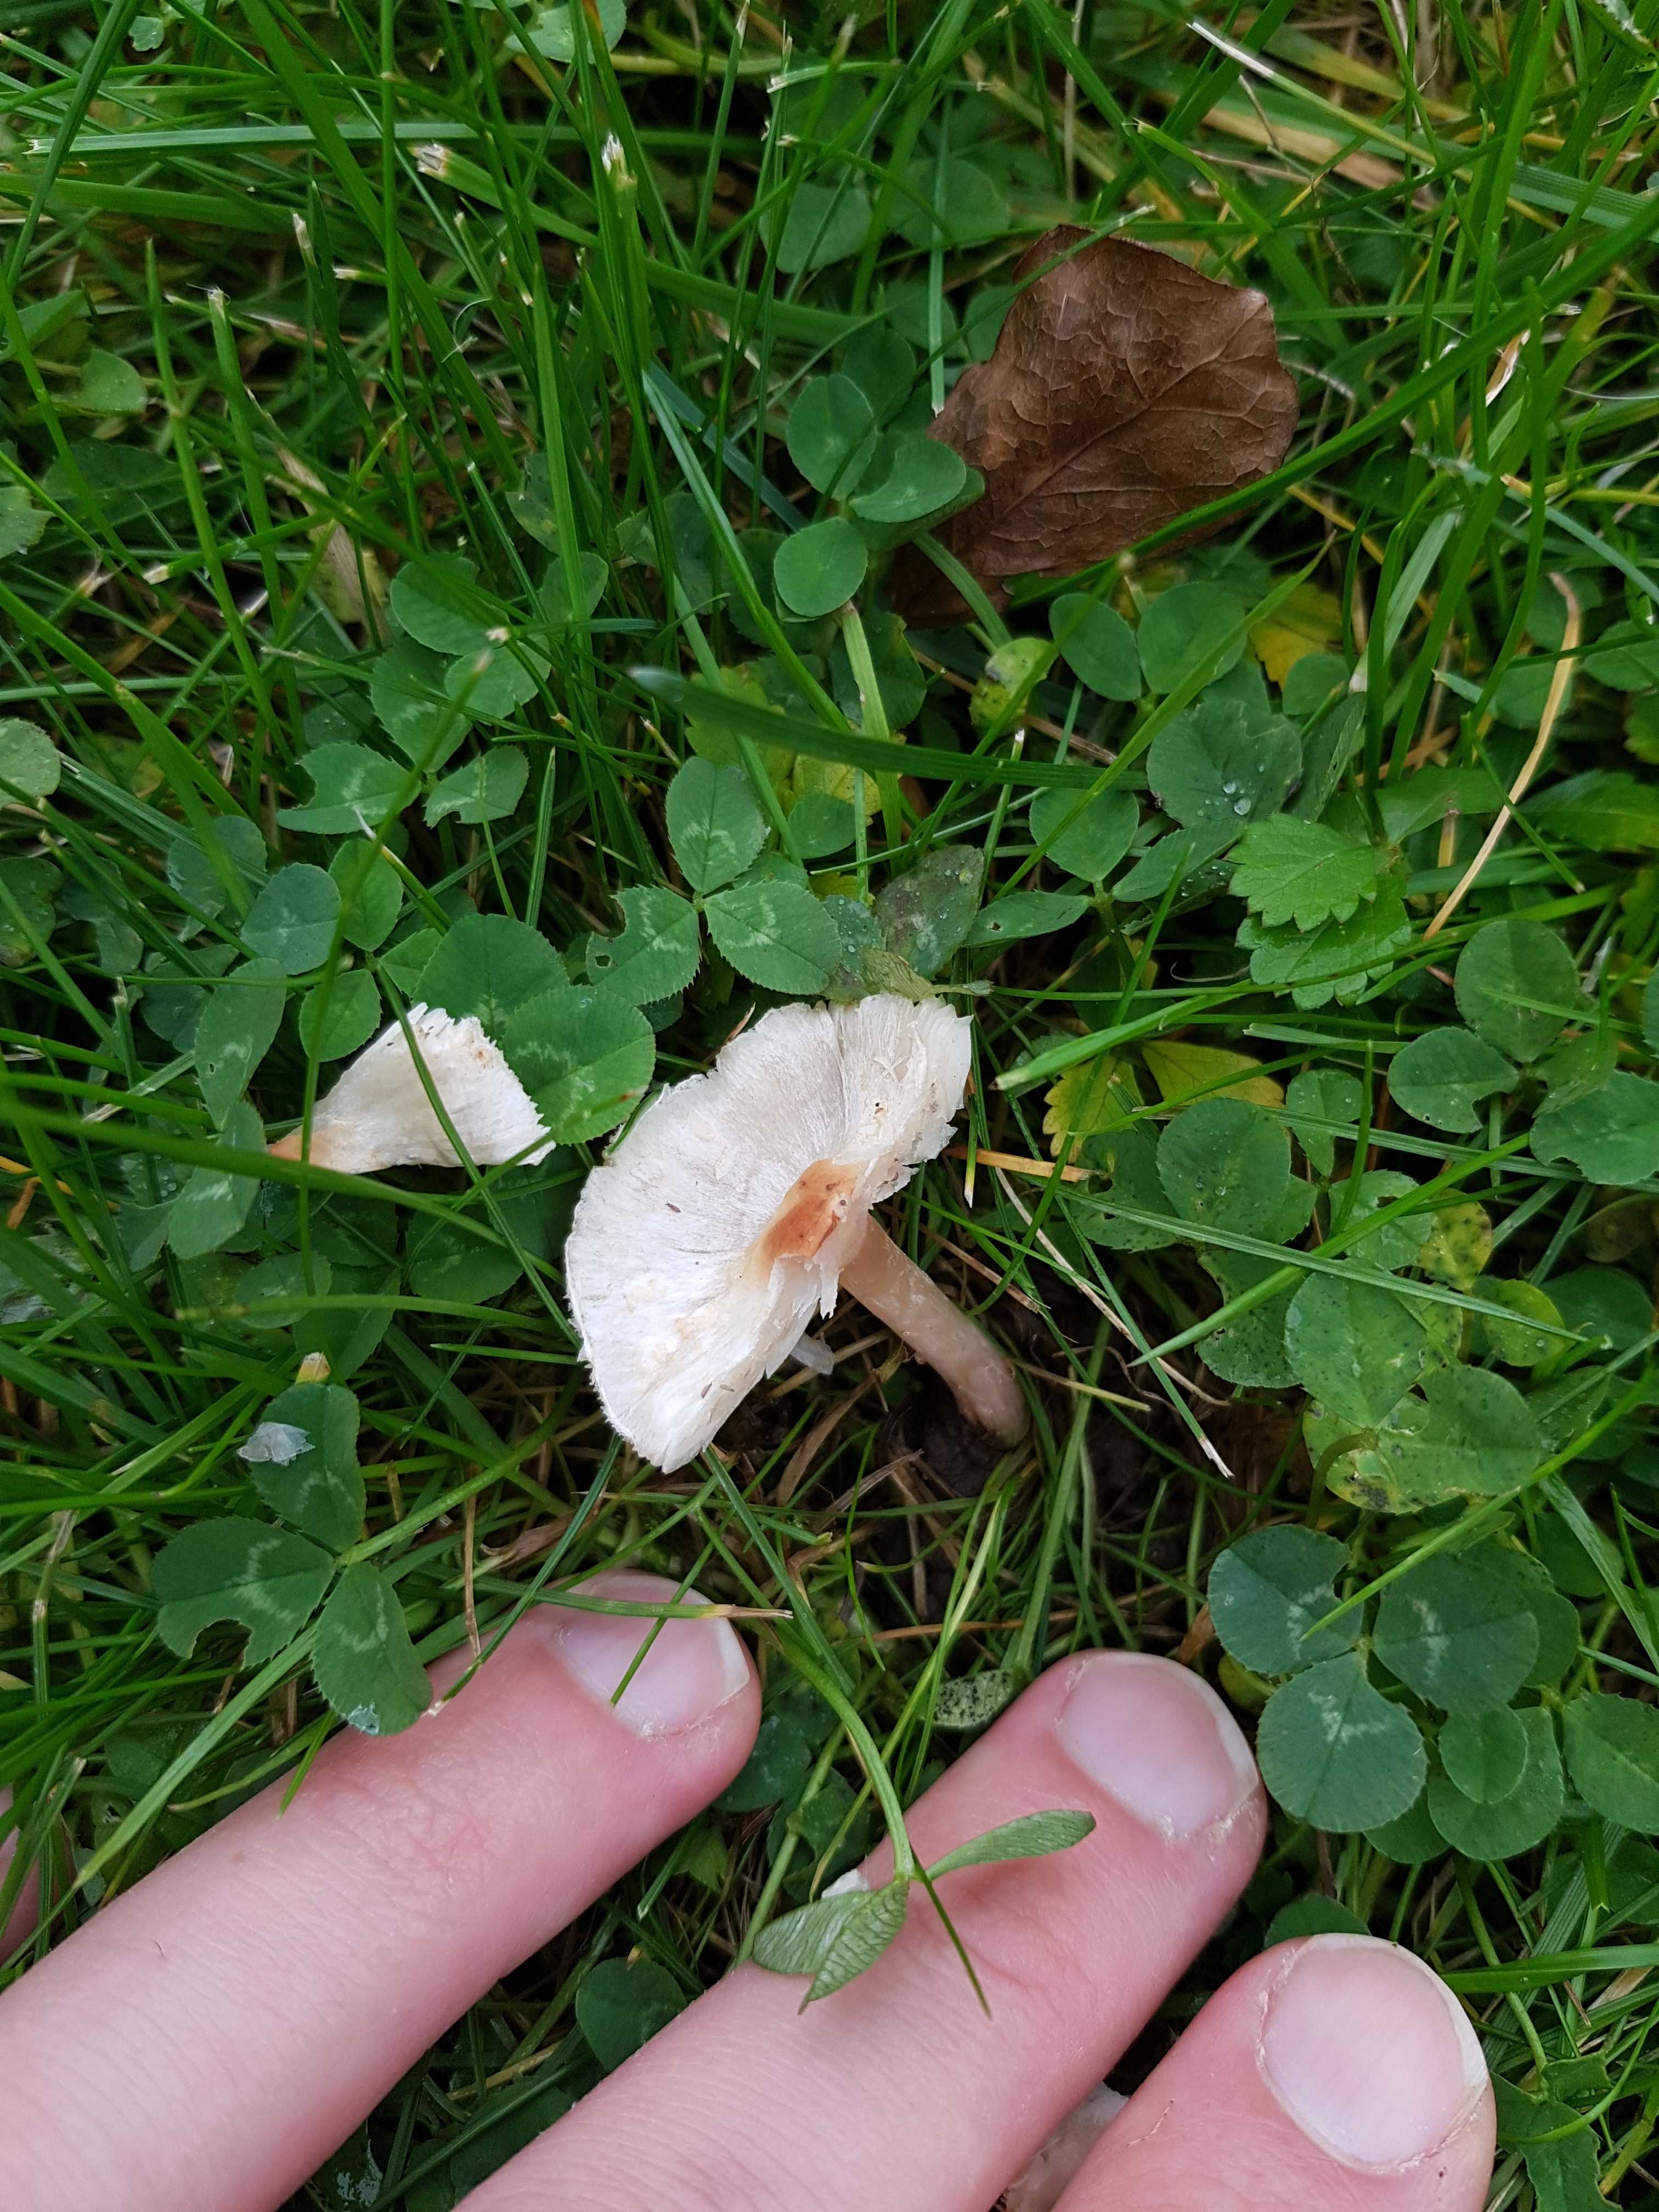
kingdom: Fungi
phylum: Basidiomycota
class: Agaricomycetes
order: Agaricales
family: Agaricaceae
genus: Lepiota
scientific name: Lepiota cristata
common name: stinkende parasolhat
